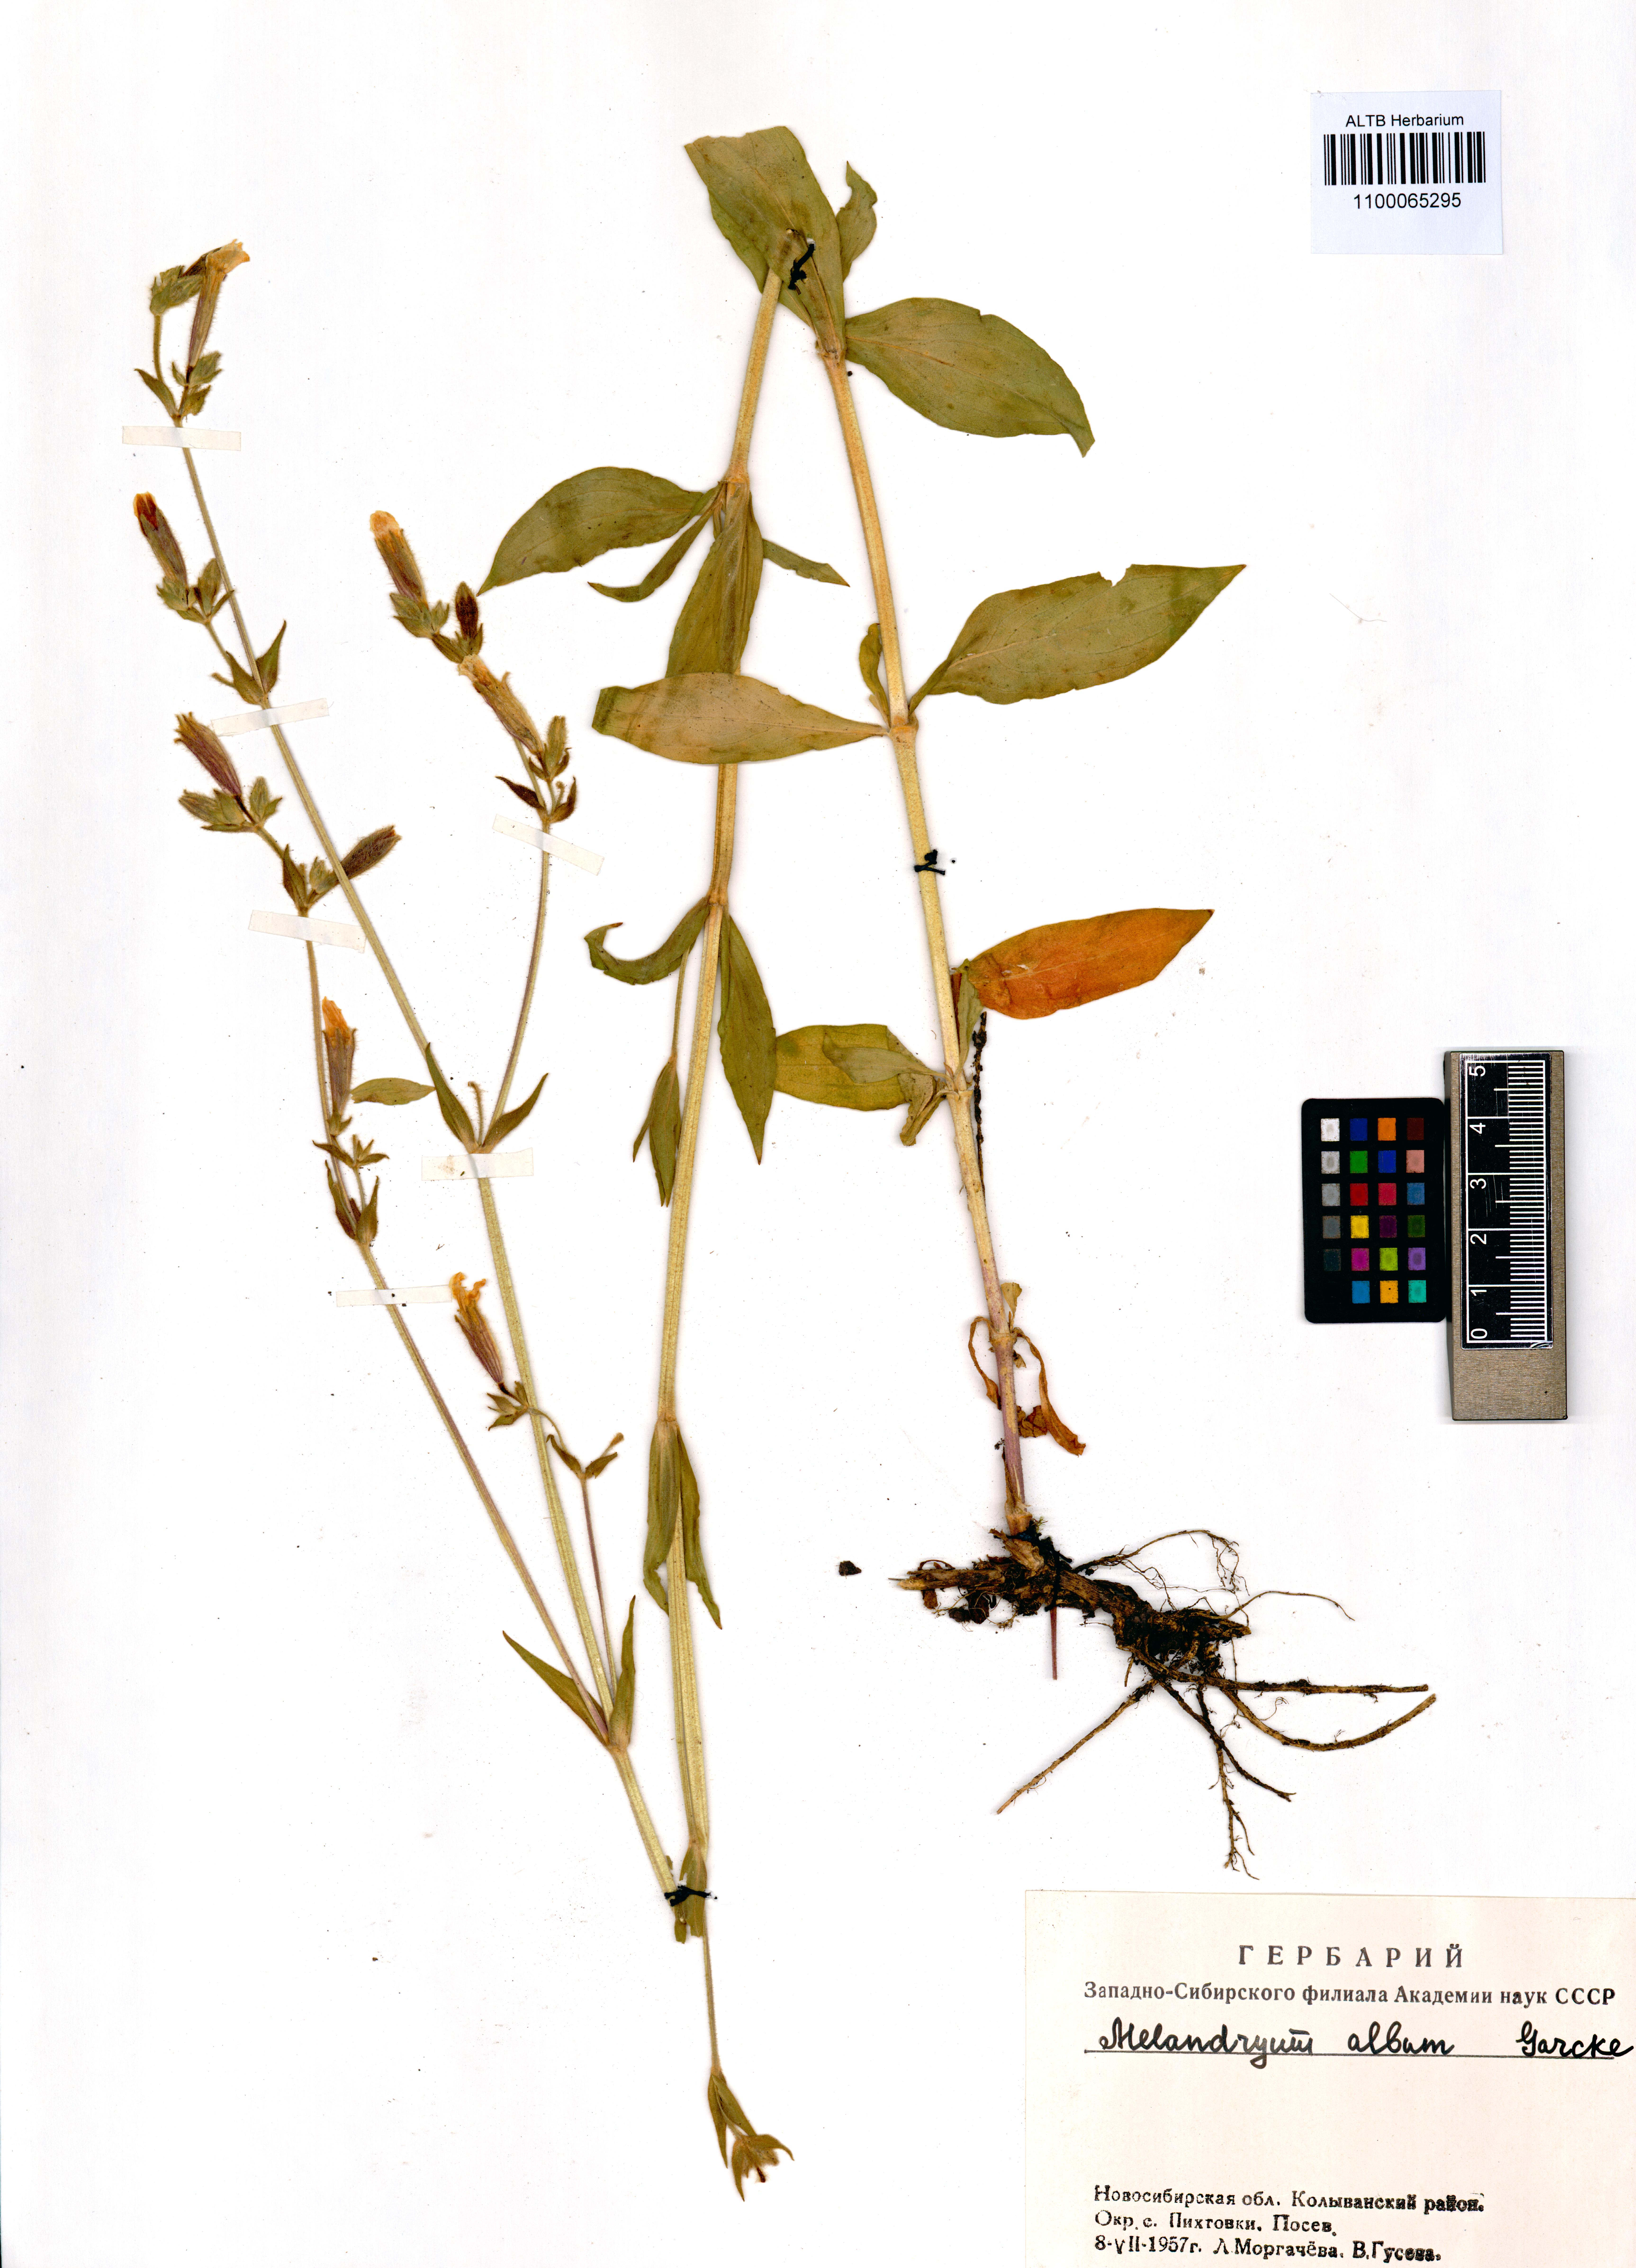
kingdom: Plantae
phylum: Tracheophyta
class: Magnoliopsida
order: Caryophyllales
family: Caryophyllaceae
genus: Silene
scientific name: Silene latifolia
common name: White campion
